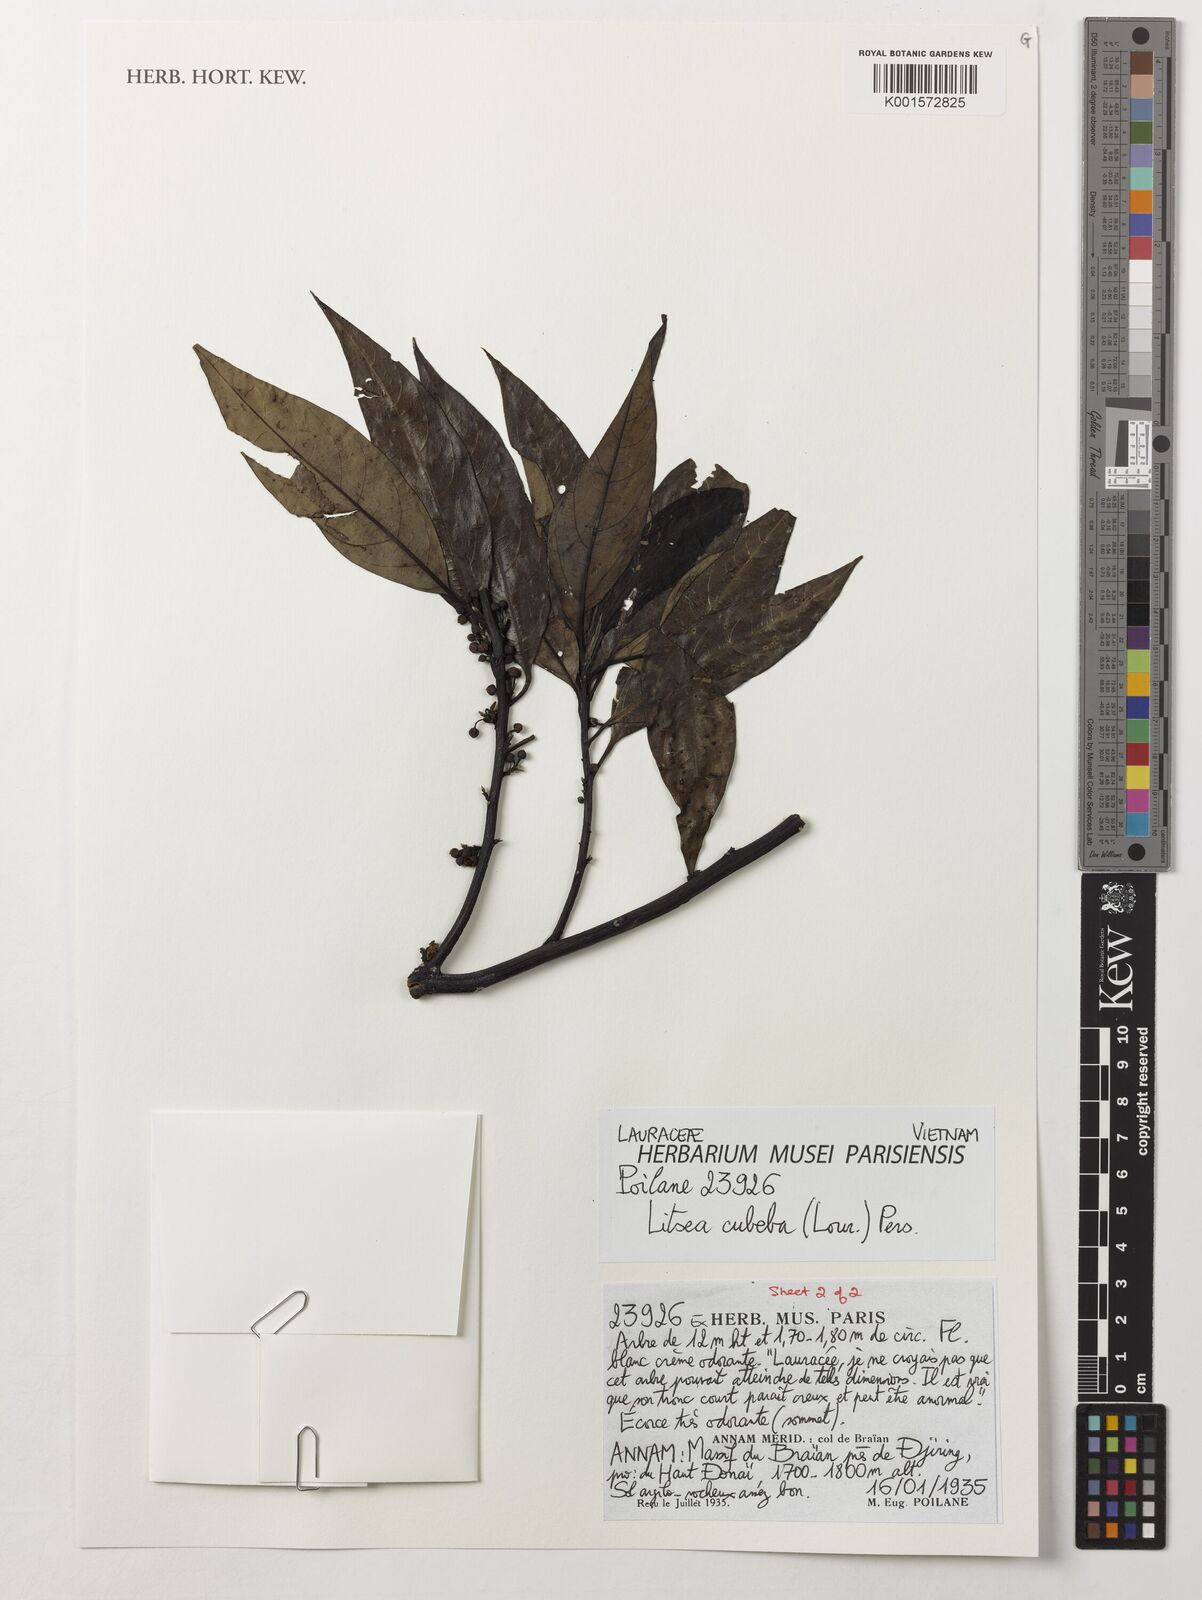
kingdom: Plantae
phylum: Tracheophyta
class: Magnoliopsida
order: Laurales
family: Lauraceae
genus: Litsea
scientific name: Litsea cubeba
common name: Mountain-pepper
